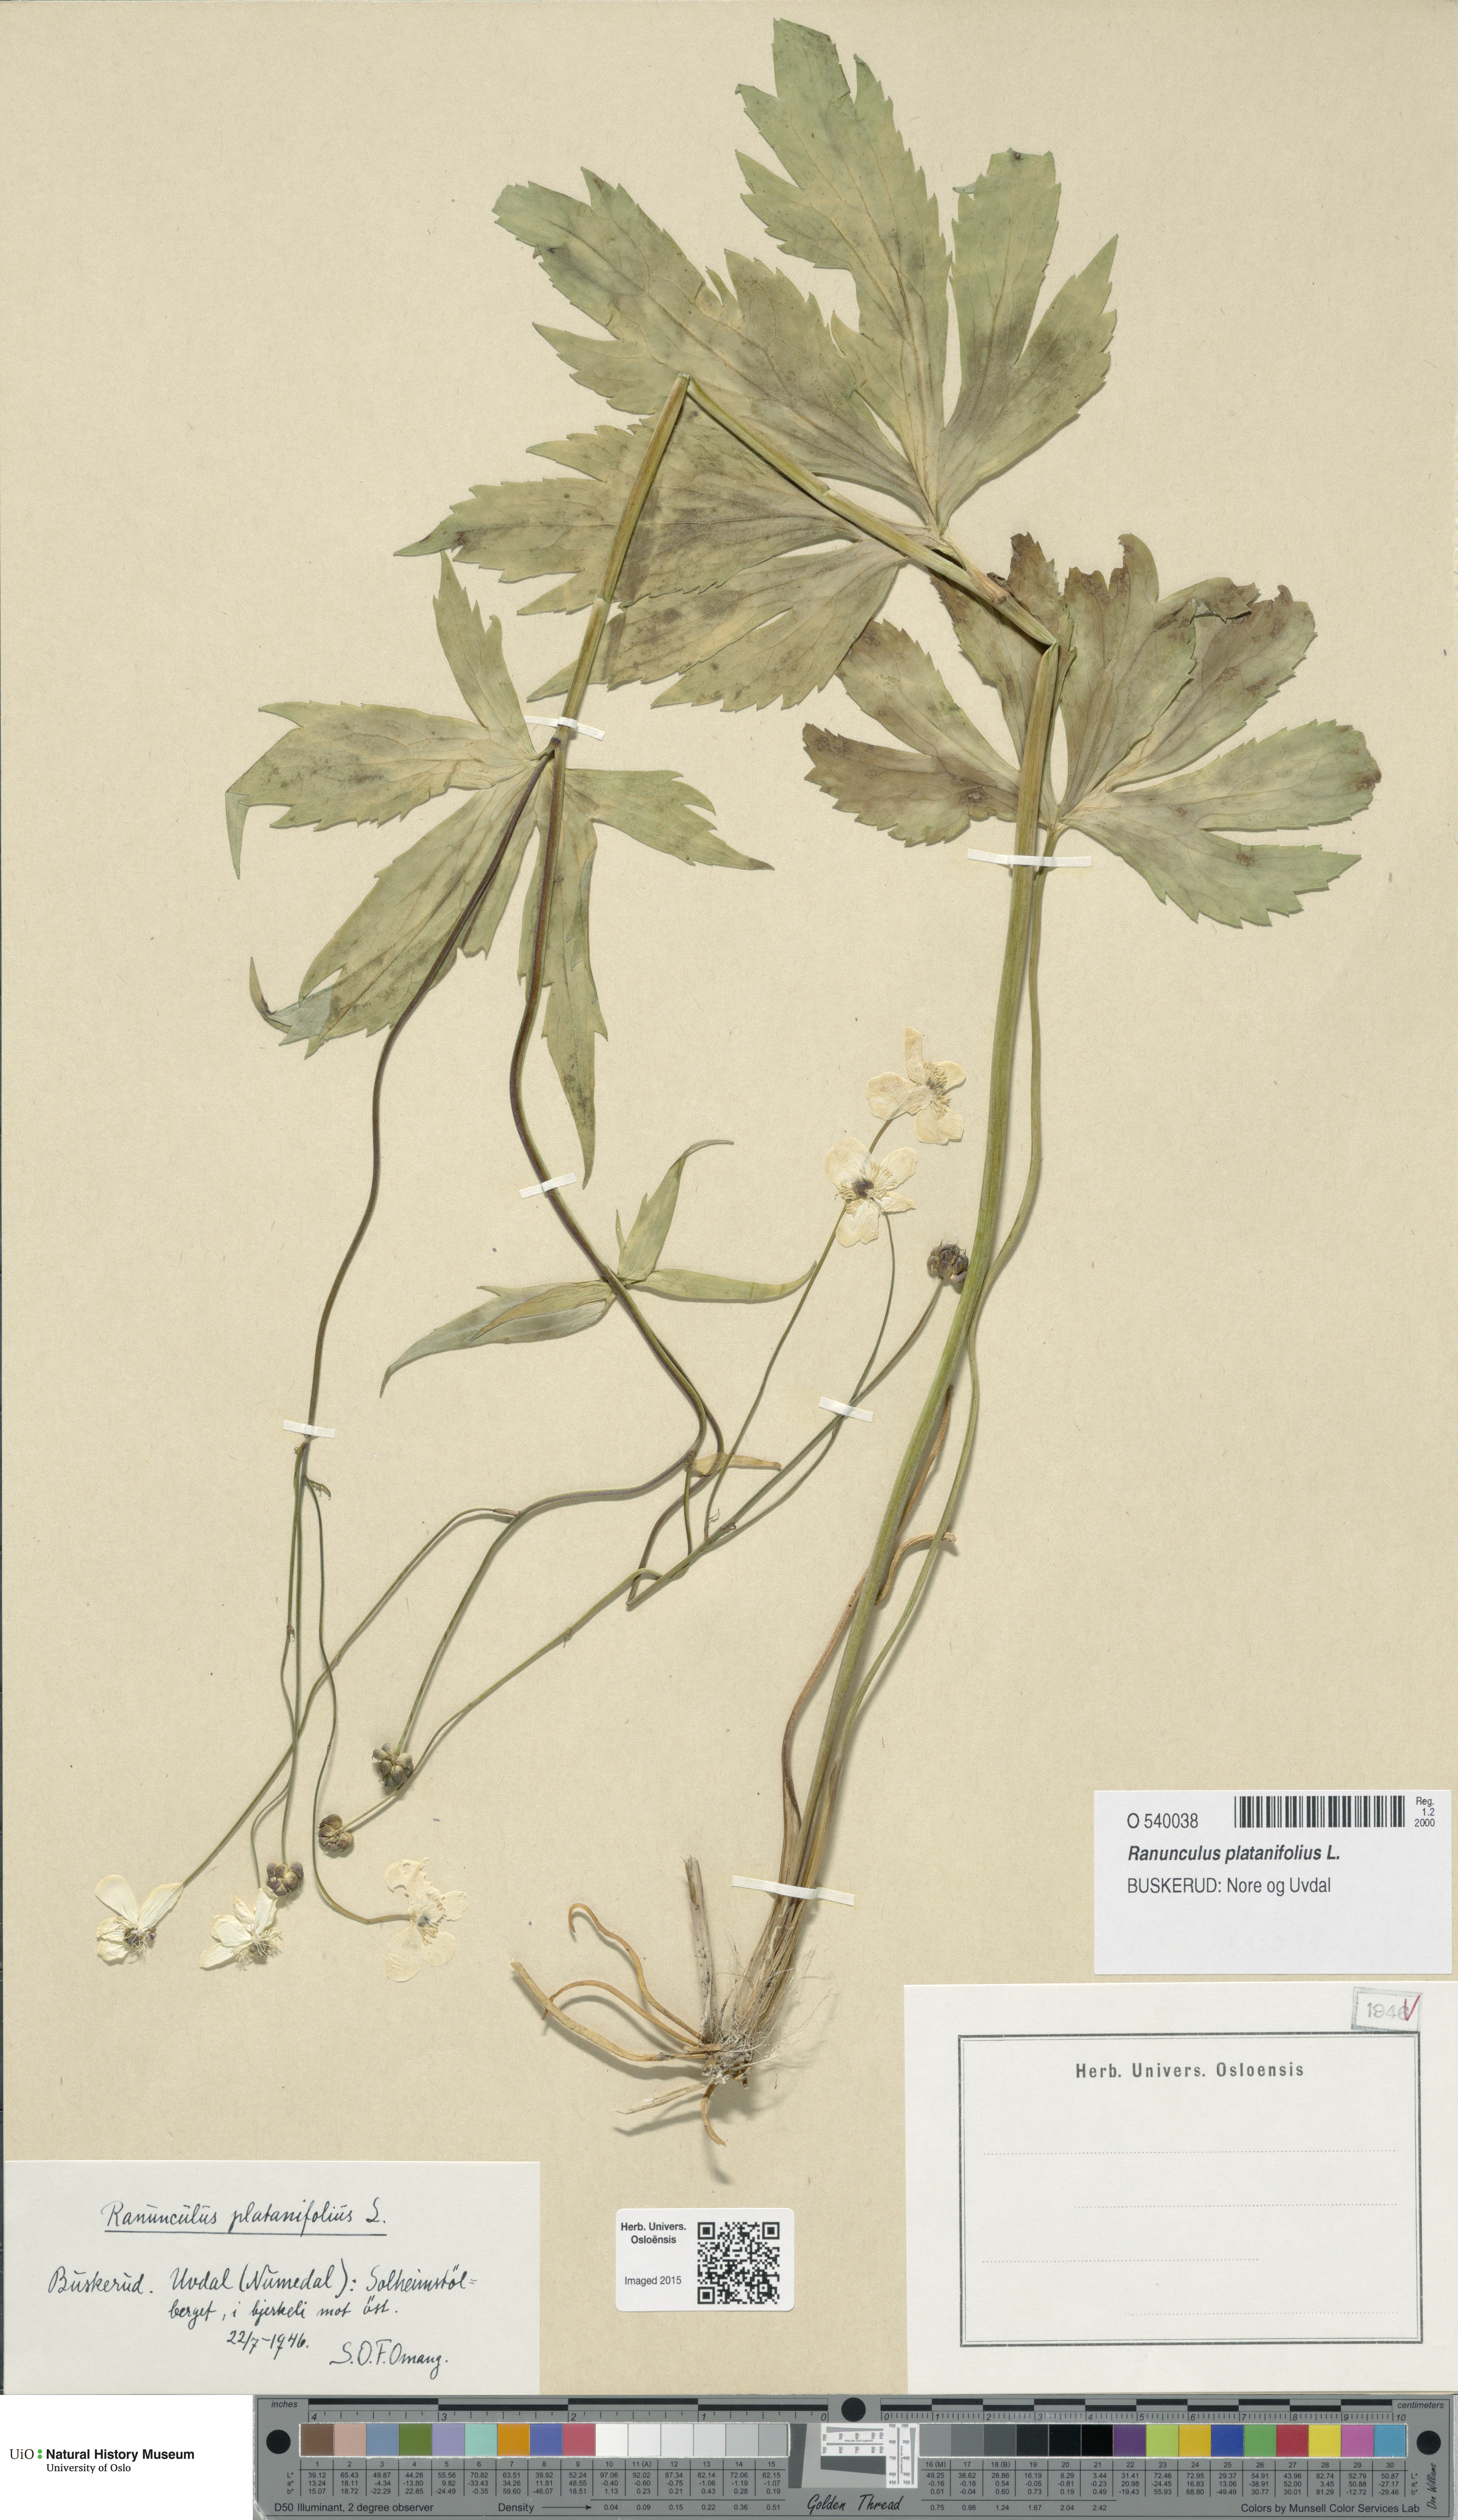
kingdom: Plantae
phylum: Tracheophyta
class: Magnoliopsida
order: Ranunculales
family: Ranunculaceae
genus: Ranunculus
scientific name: Ranunculus platanifolius
